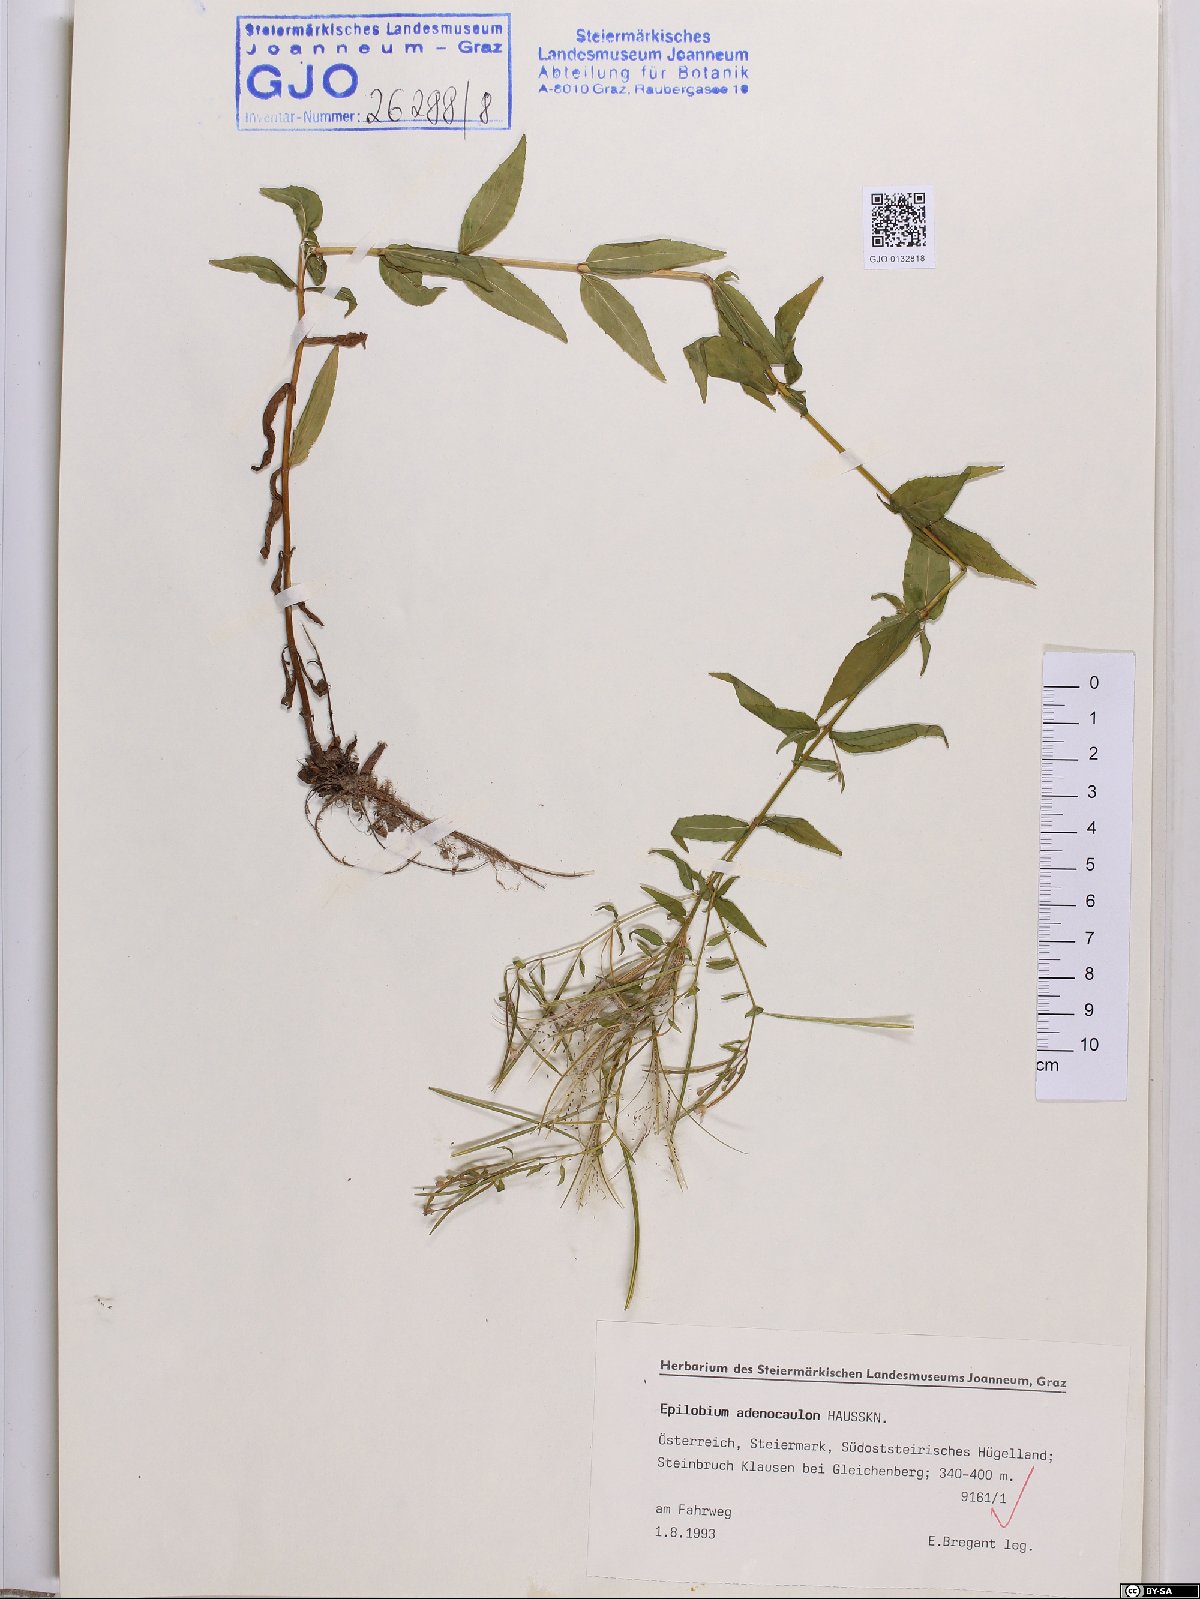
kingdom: Plantae
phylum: Tracheophyta
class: Magnoliopsida
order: Myrtales
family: Onagraceae
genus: Epilobium
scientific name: Epilobium ciliatum
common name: American willowherb
